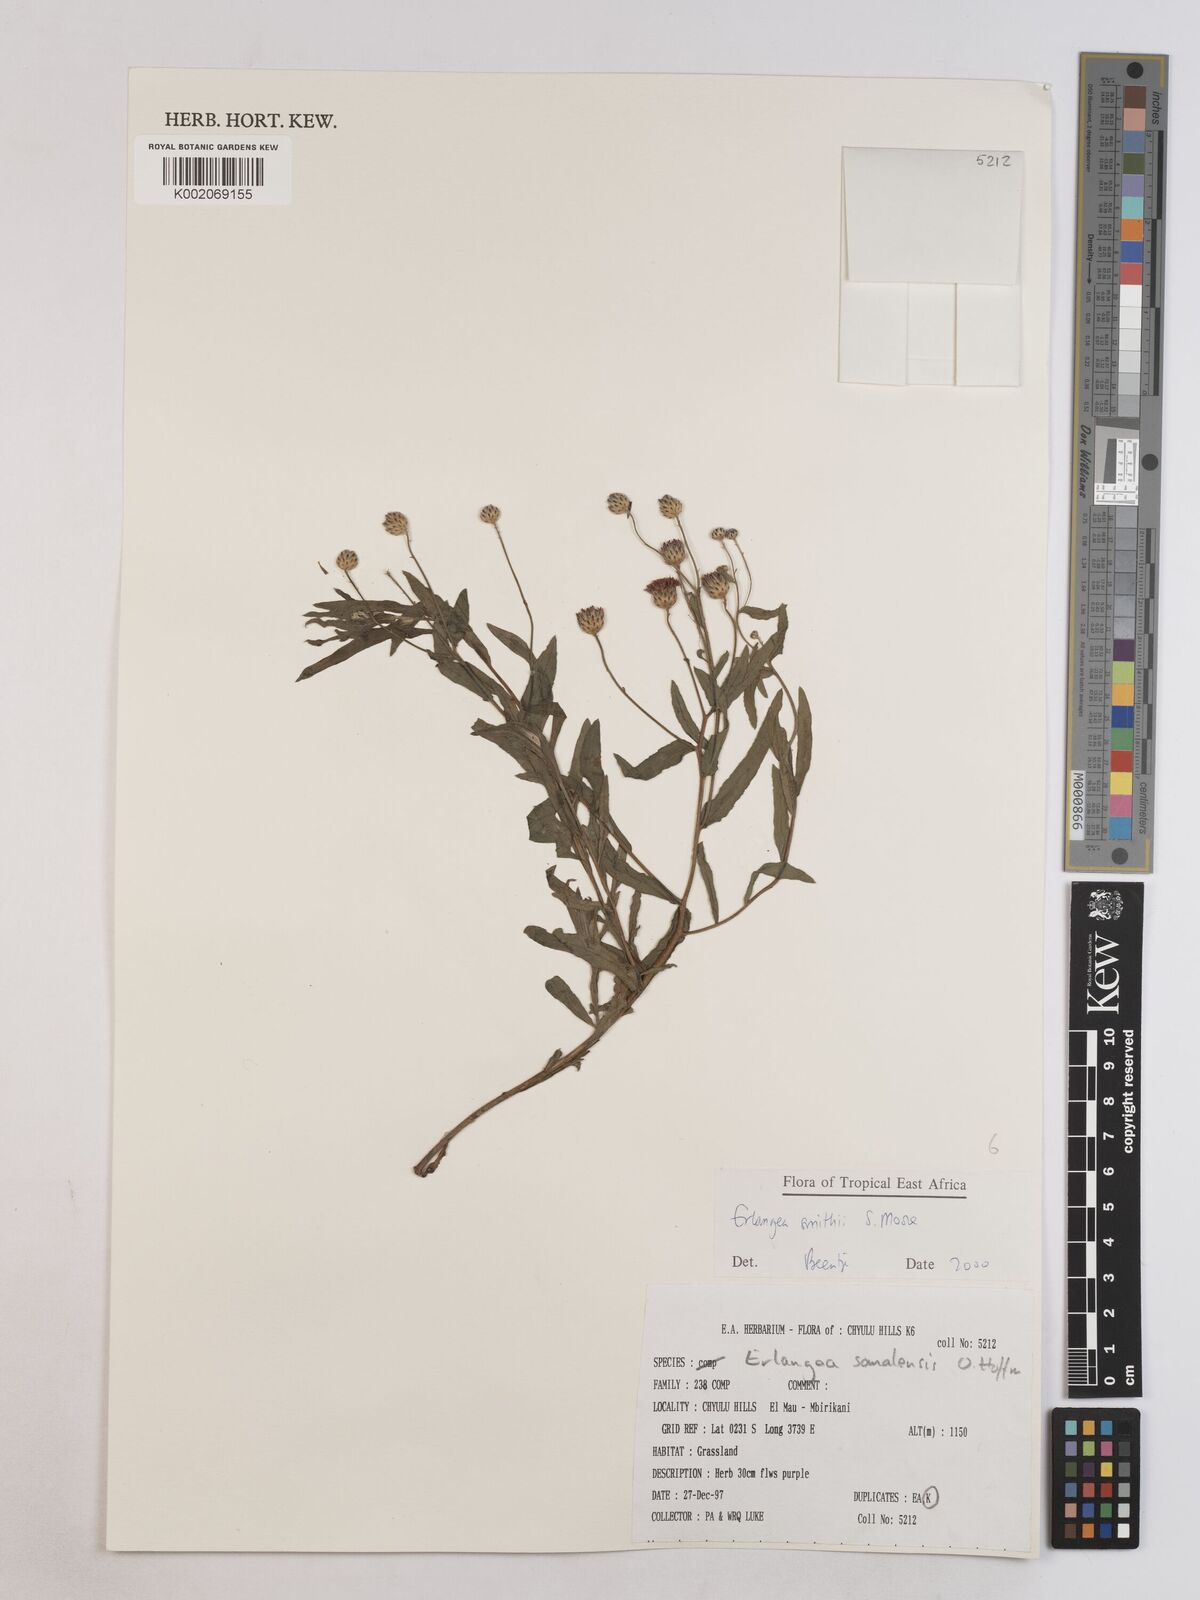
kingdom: Plantae
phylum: Tracheophyta
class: Magnoliopsida
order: Asterales
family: Asteraceae
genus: Erlangea
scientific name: Erlangea smithii
